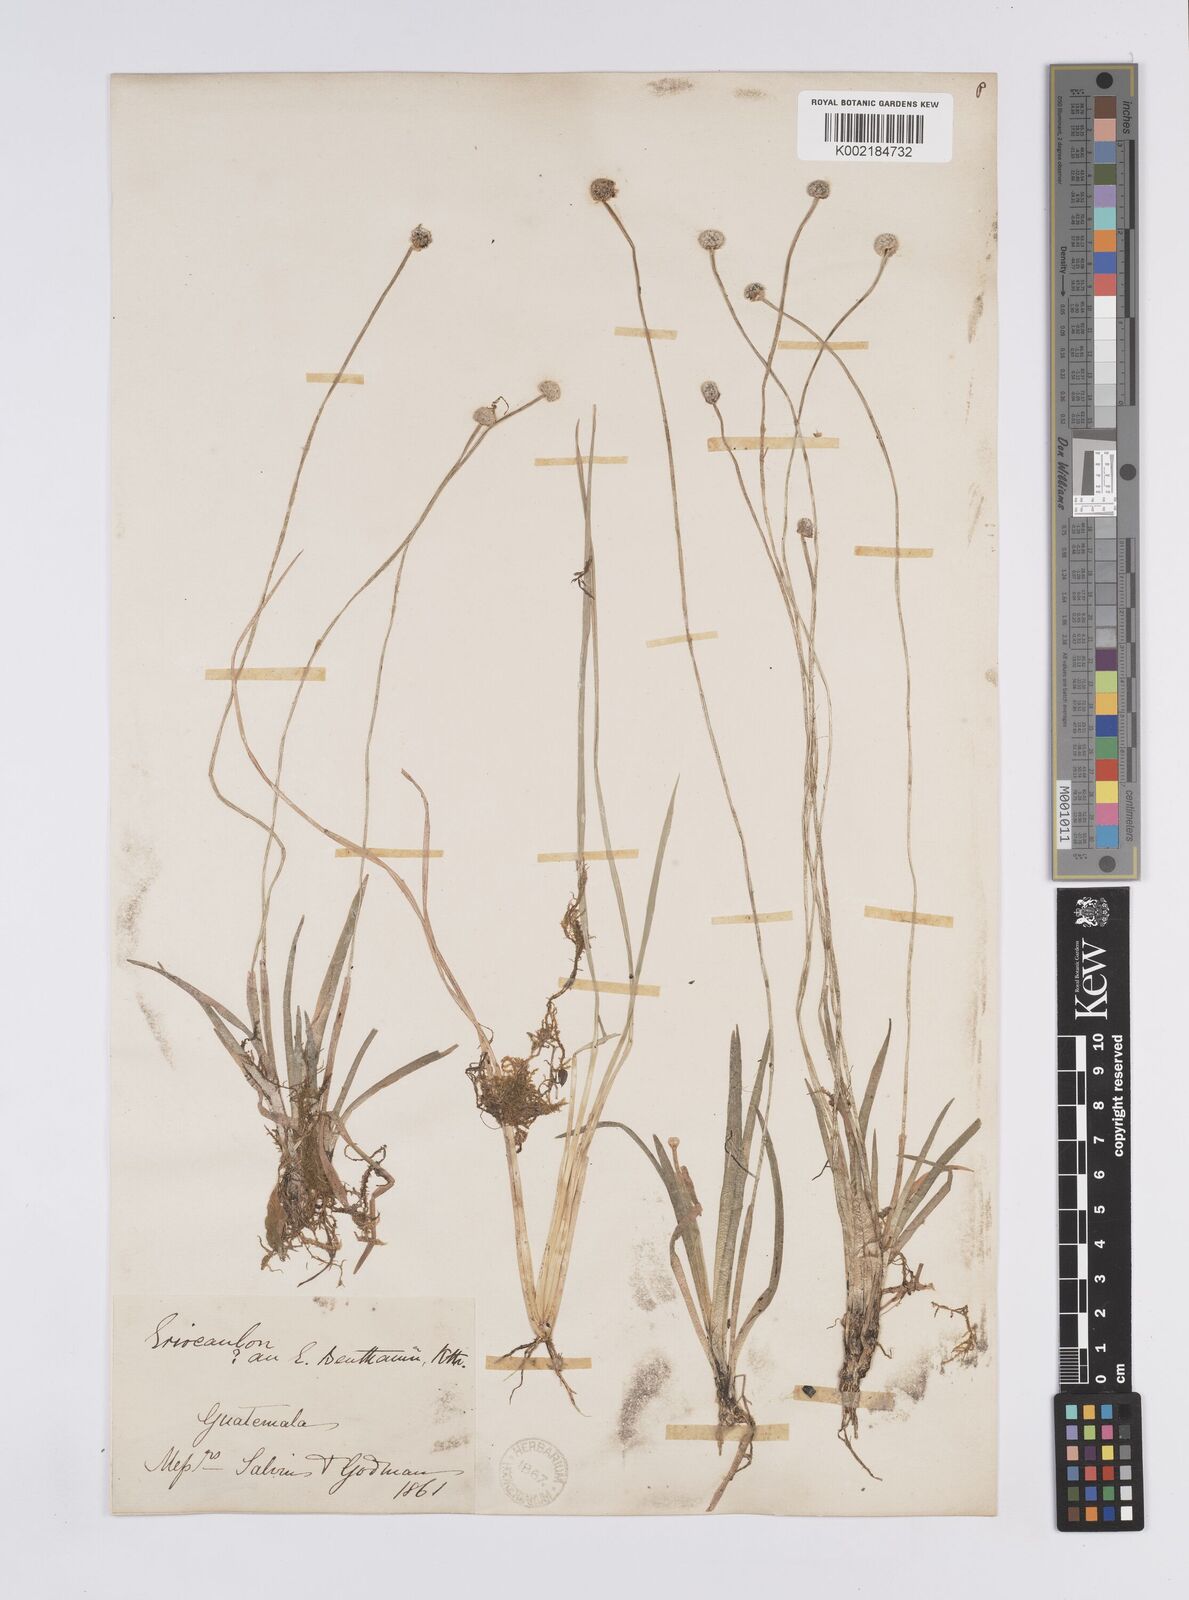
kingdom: Plantae
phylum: Tracheophyta
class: Liliopsida
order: Poales
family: Eriocaulaceae
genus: Eriocaulon
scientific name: Eriocaulon benthamii
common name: Bentham's pipewort
